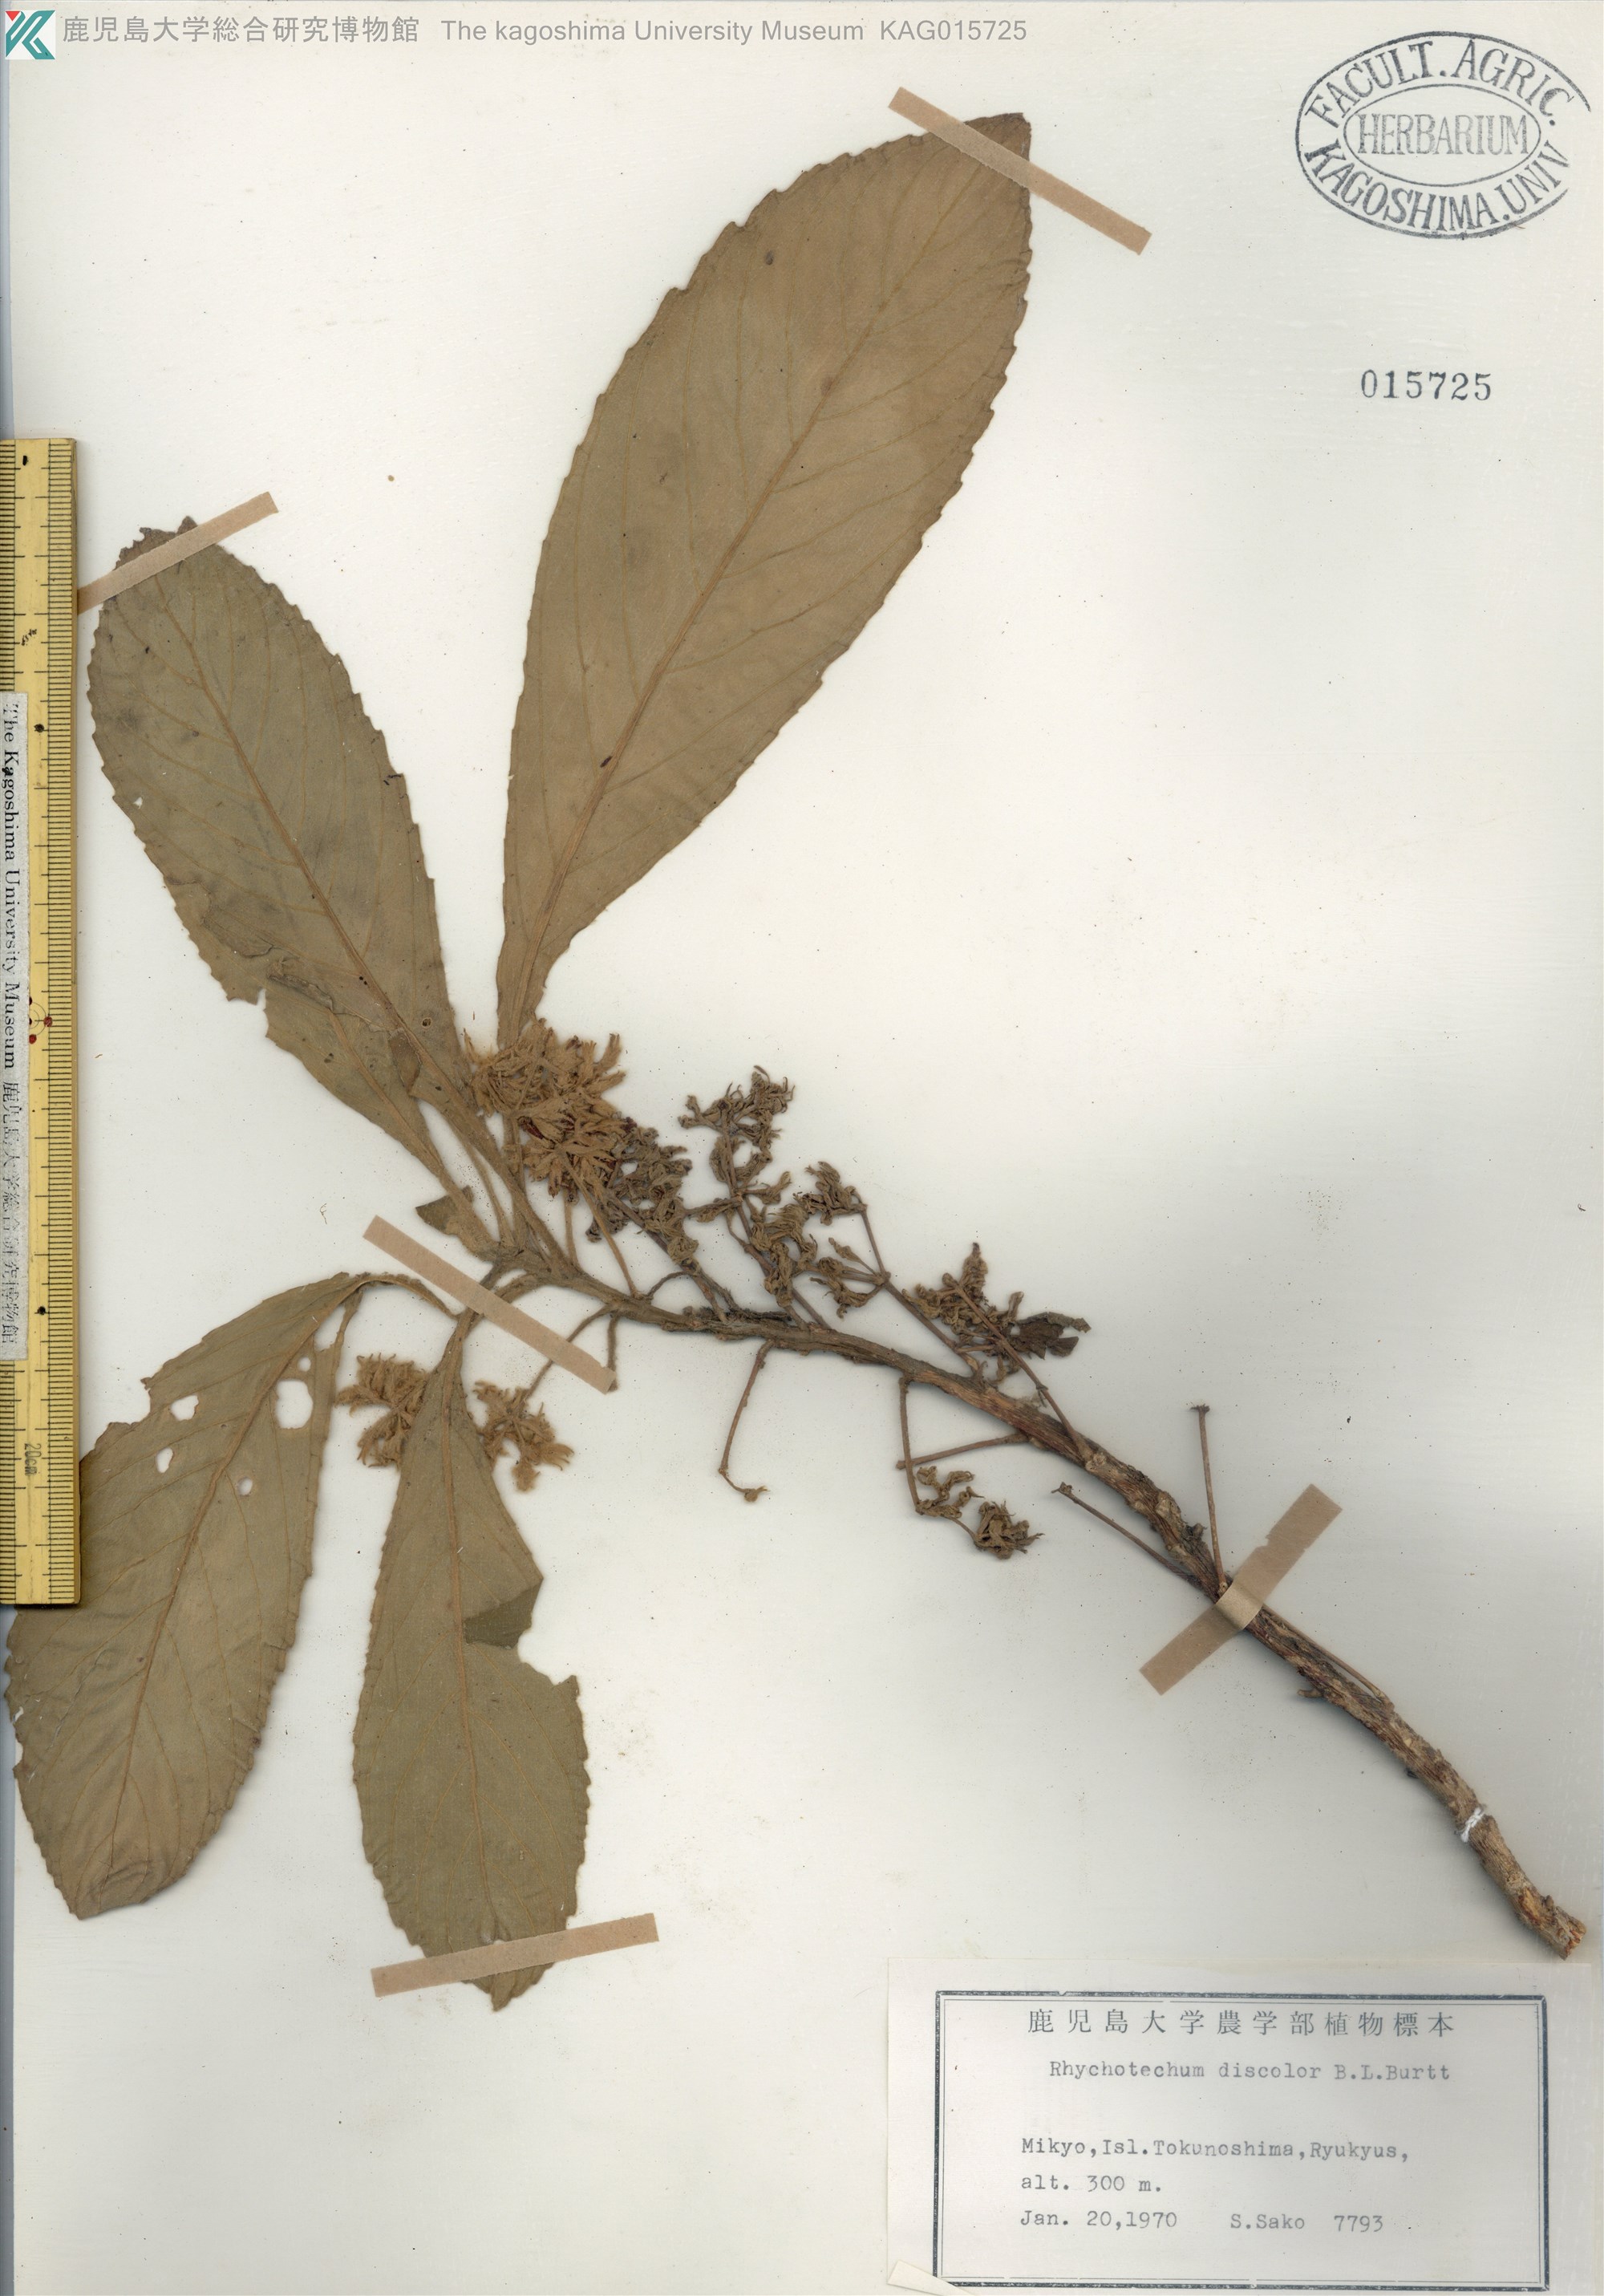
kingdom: Plantae
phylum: Tracheophyta
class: Magnoliopsida
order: Lamiales
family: Gesneriaceae
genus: Rhynchotechum
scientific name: Rhynchotechum discolor
